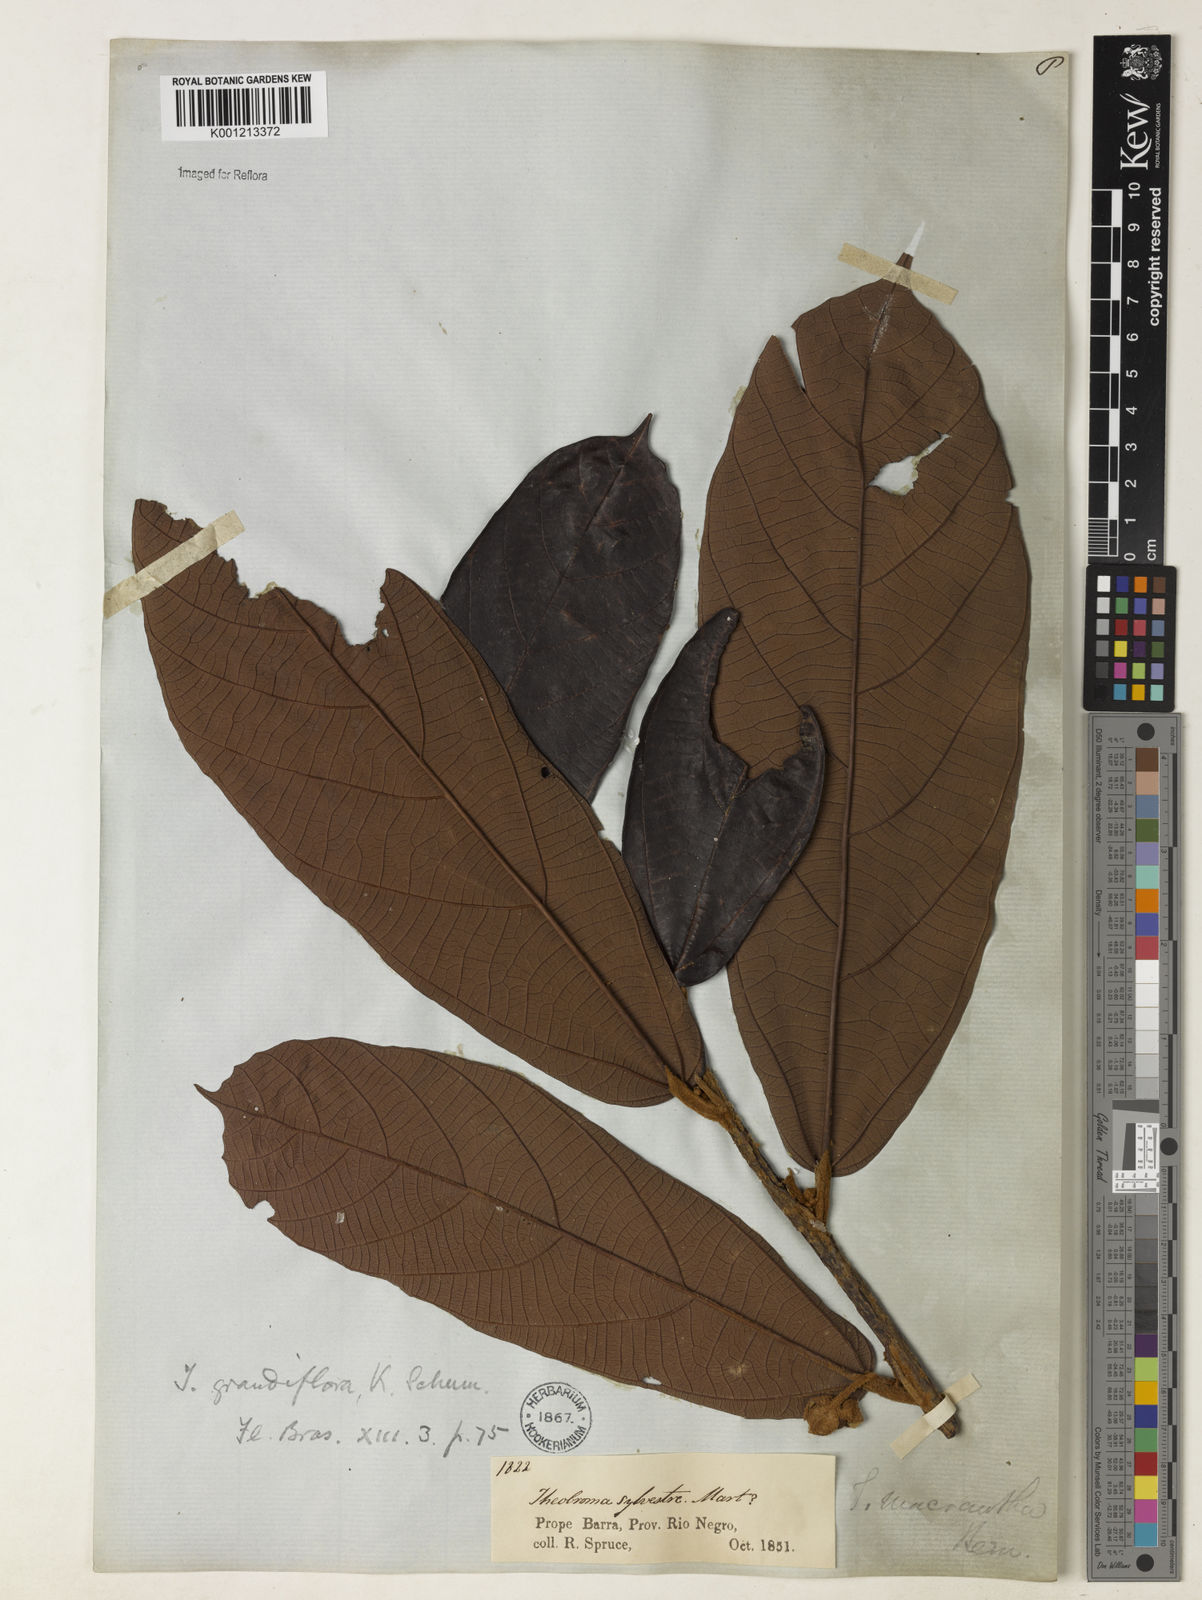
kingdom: Plantae
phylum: Tracheophyta
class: Magnoliopsida
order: Malvales
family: Malvaceae
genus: Theobroma
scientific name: Theobroma grandiflorum
